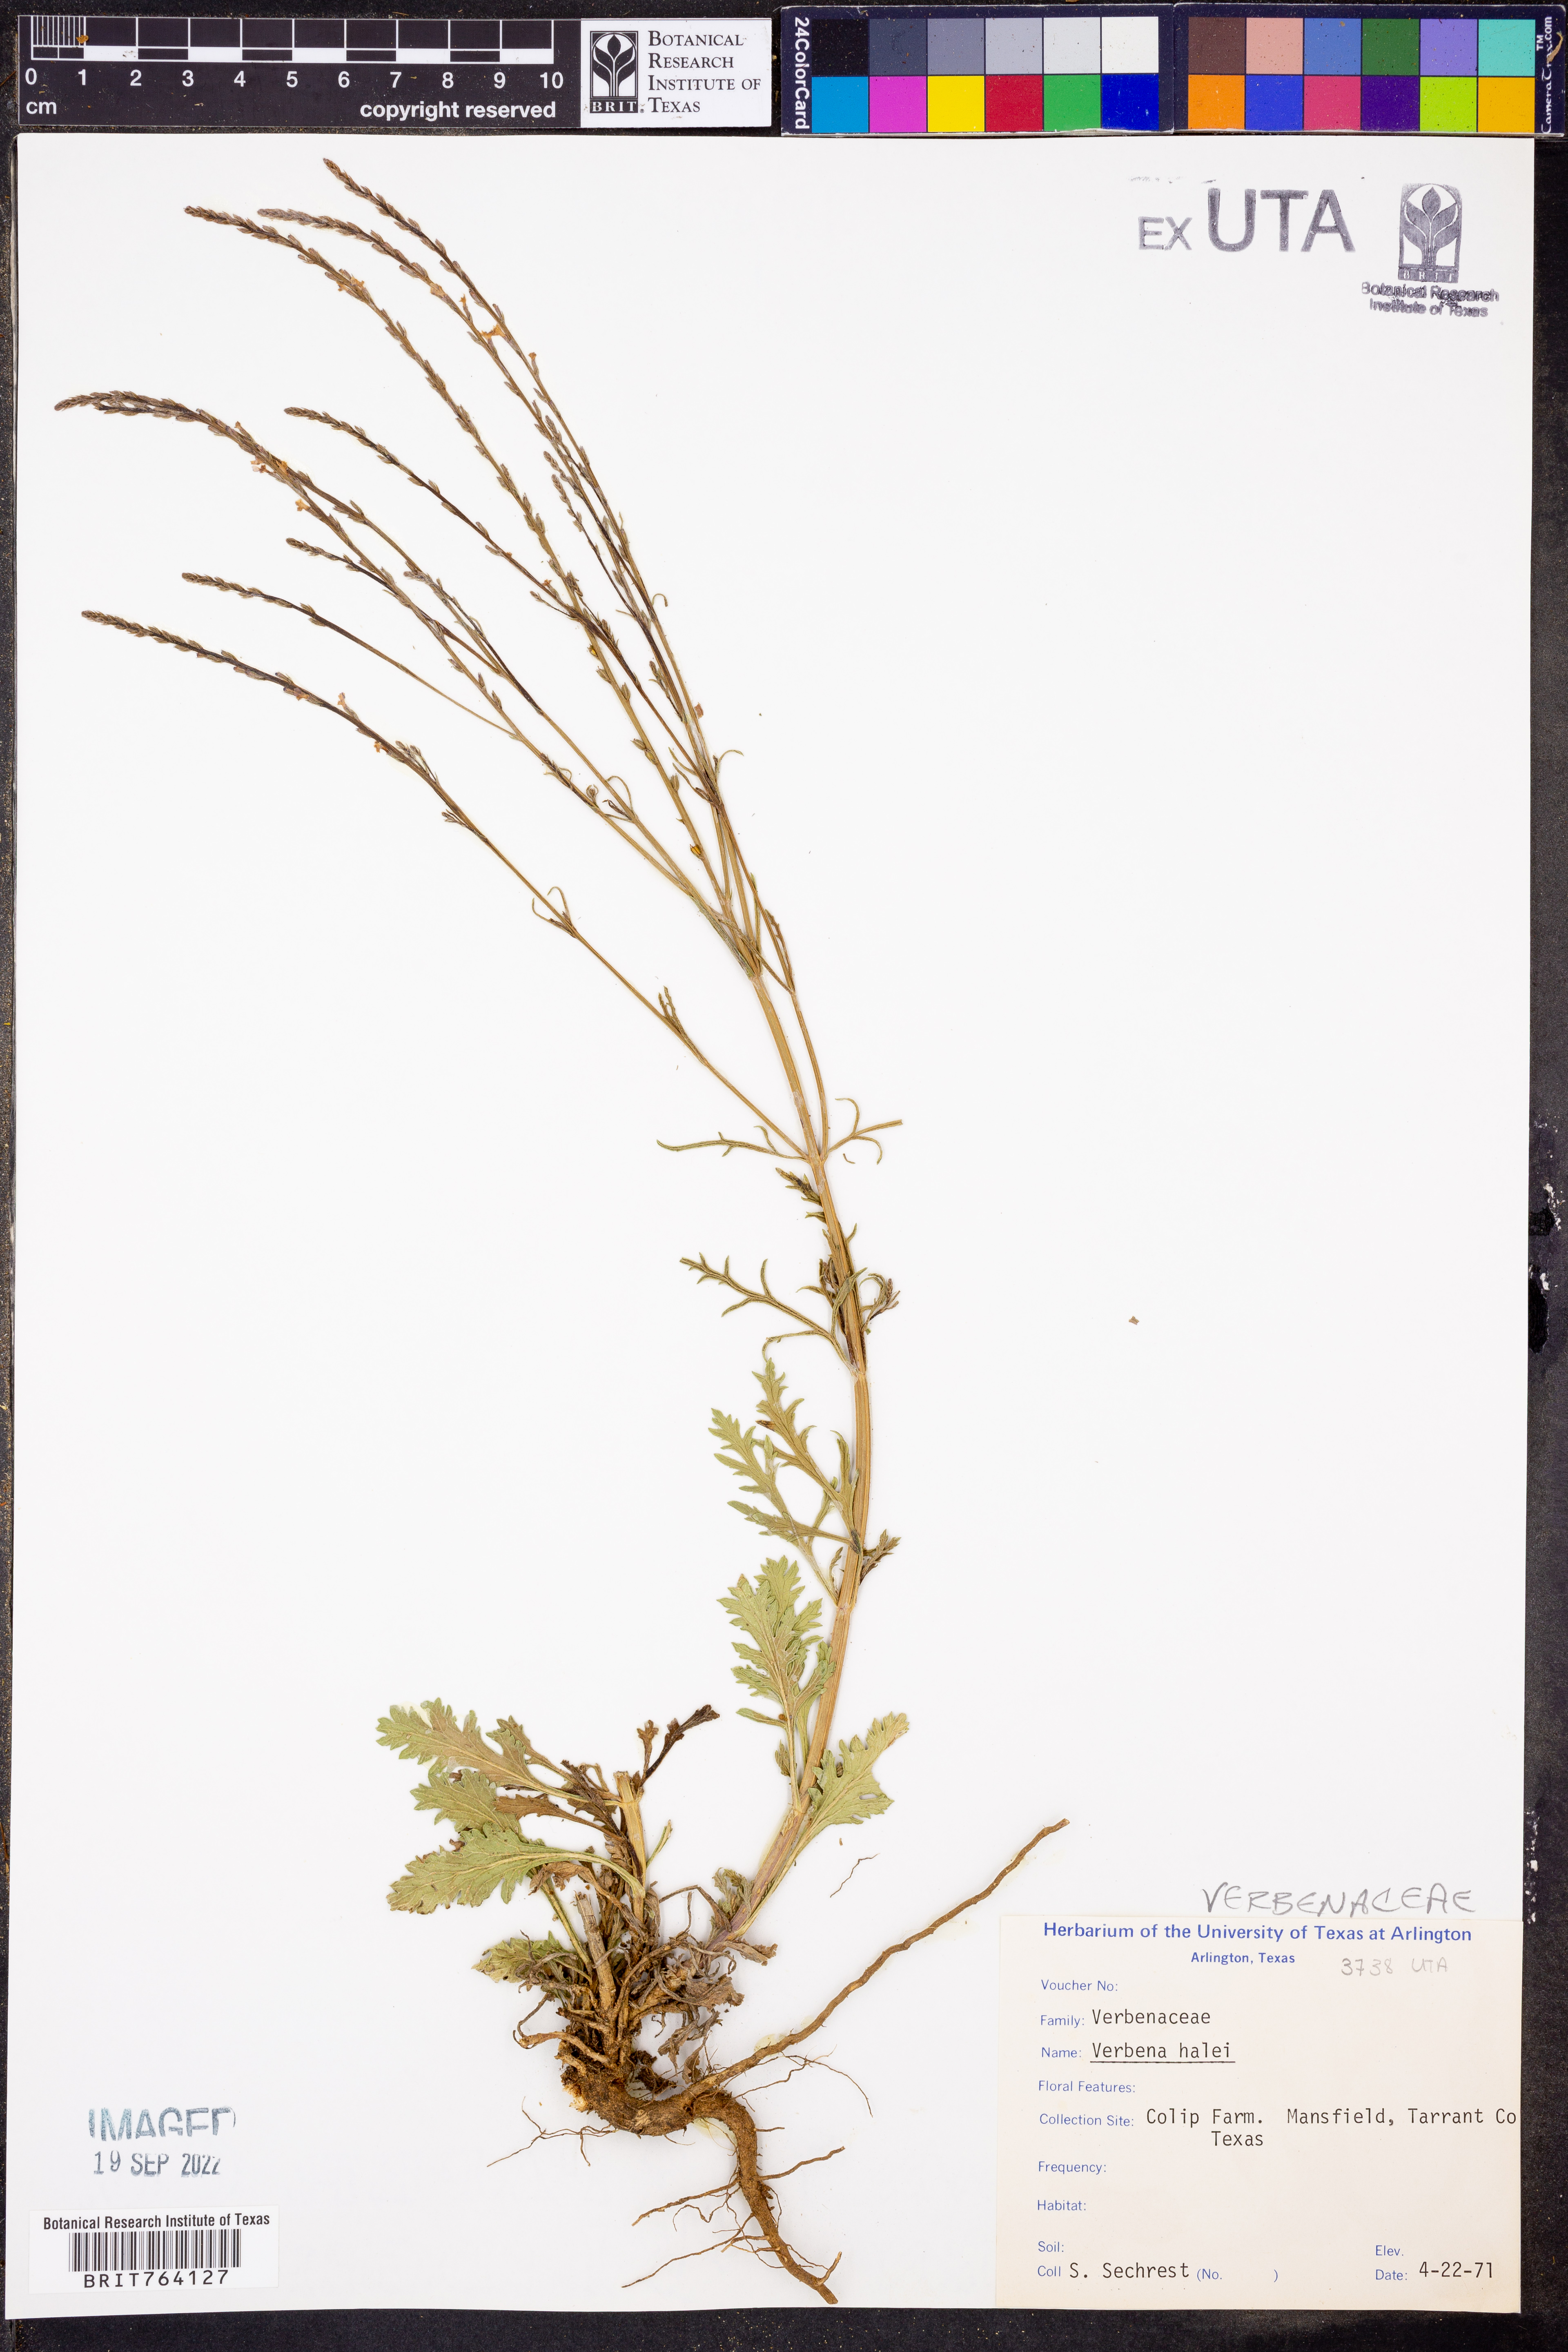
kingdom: Plantae
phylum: Tracheophyta
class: Magnoliopsida
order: Lamiales
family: Verbenaceae
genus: Verbena
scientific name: Verbena halei
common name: Texas vervain
